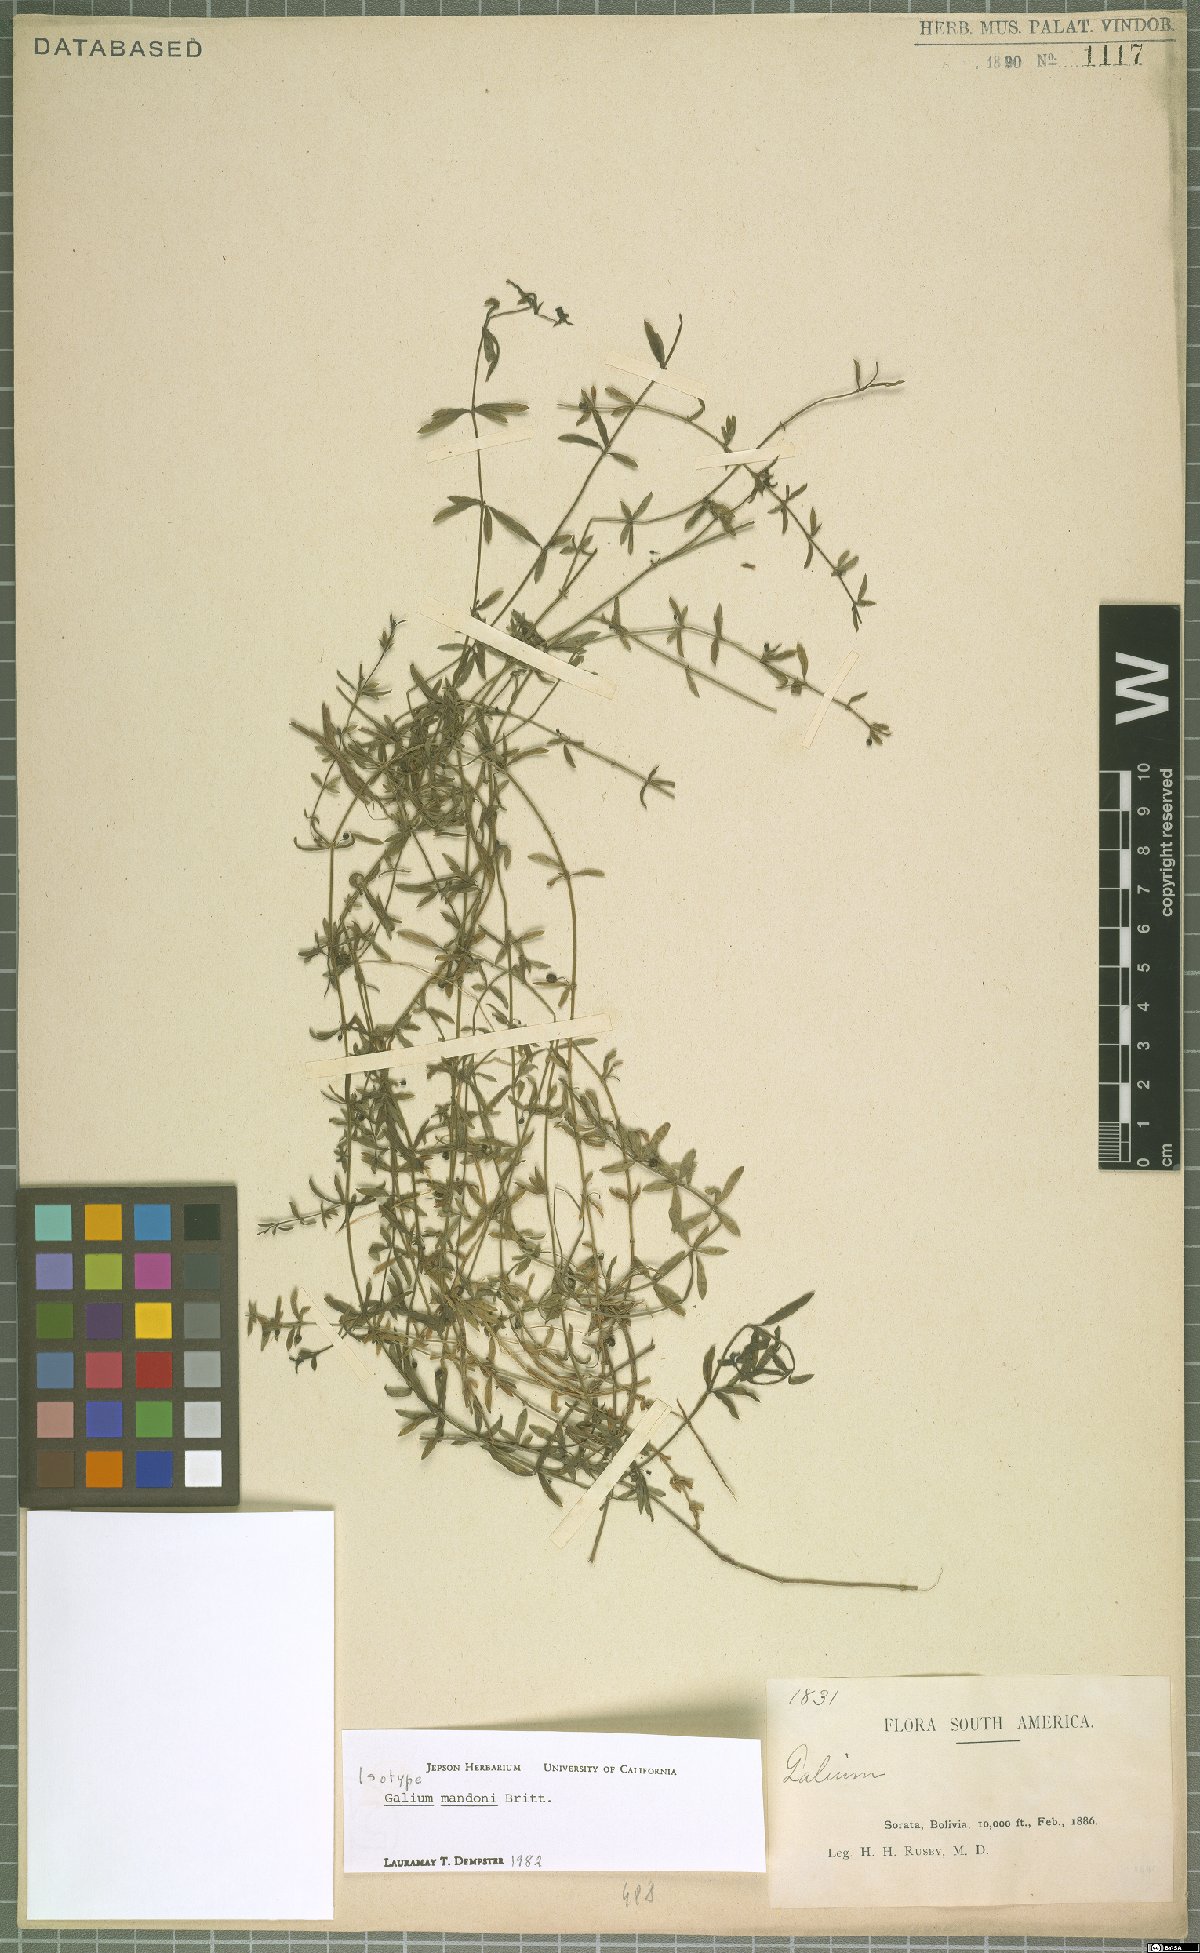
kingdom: Plantae
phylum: Tracheophyta
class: Magnoliopsida
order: Gentianales
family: Rubiaceae
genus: Galium
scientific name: Galium mandonii
